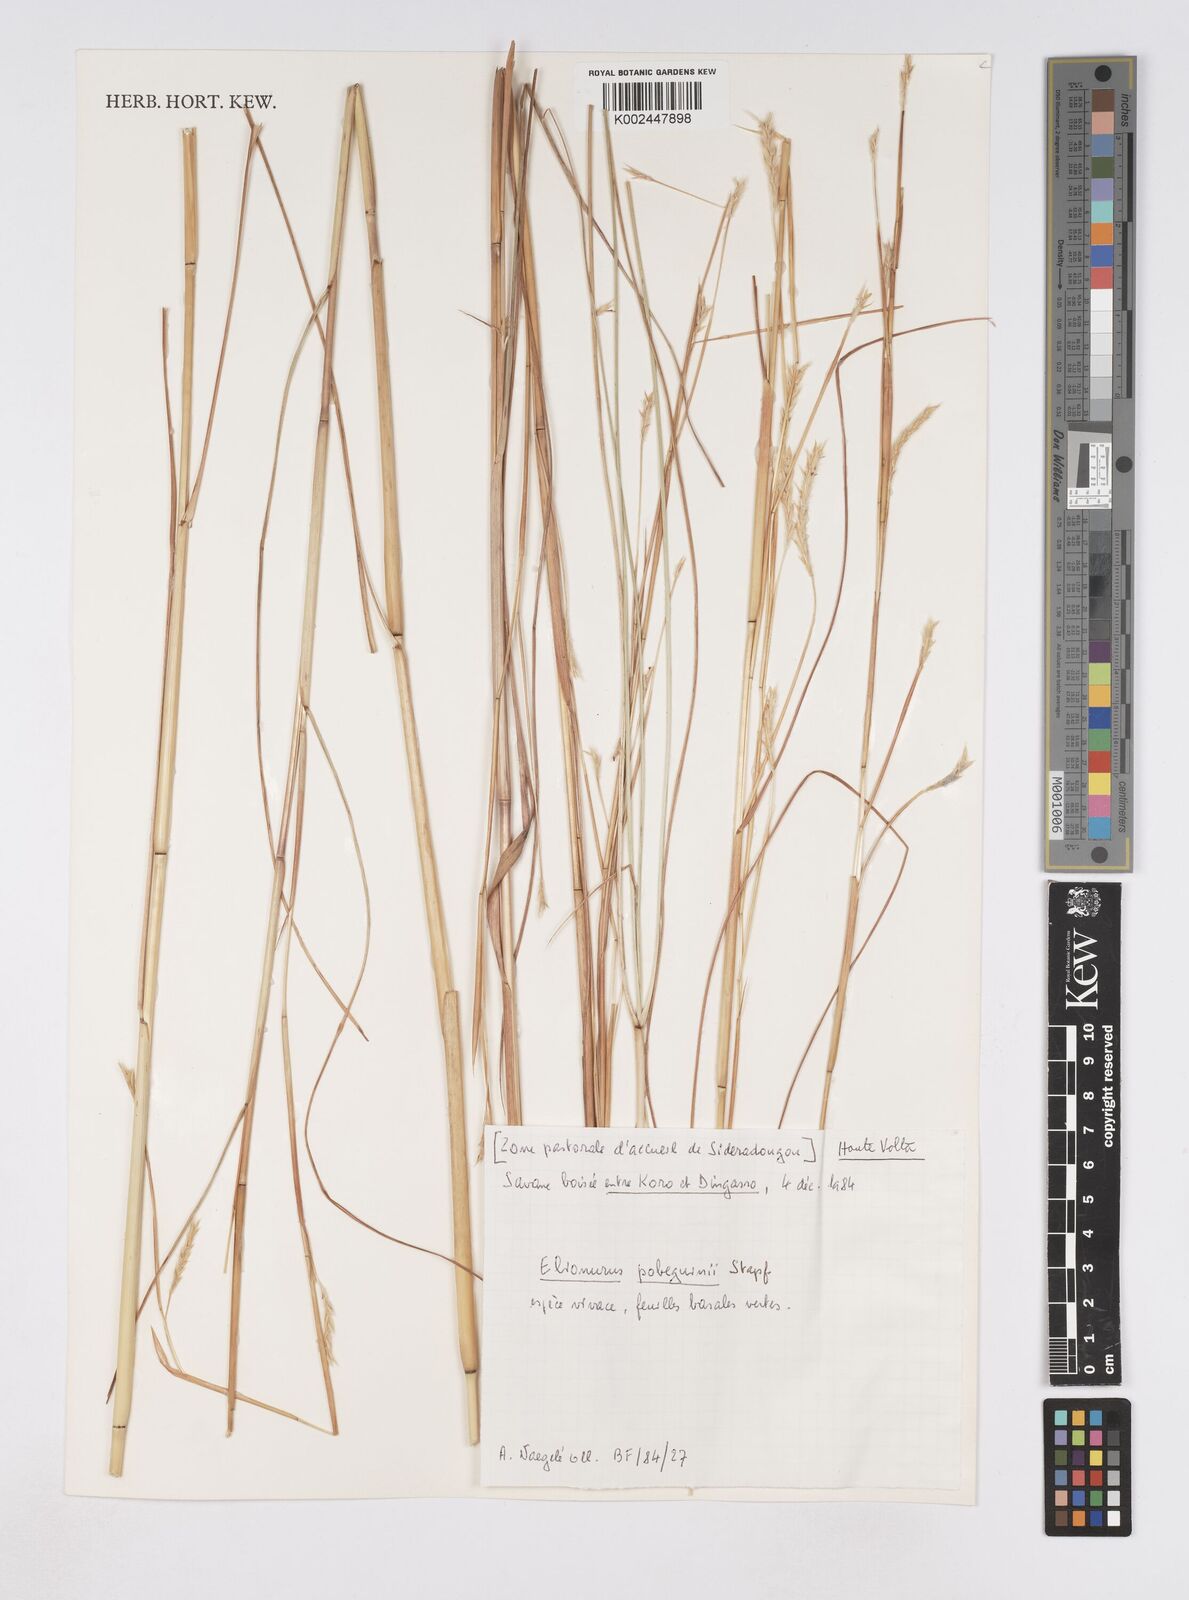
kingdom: Plantae
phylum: Tracheophyta
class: Liliopsida
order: Poales
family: Poaceae
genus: Elionurus
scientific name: Elionurus ciliaris
